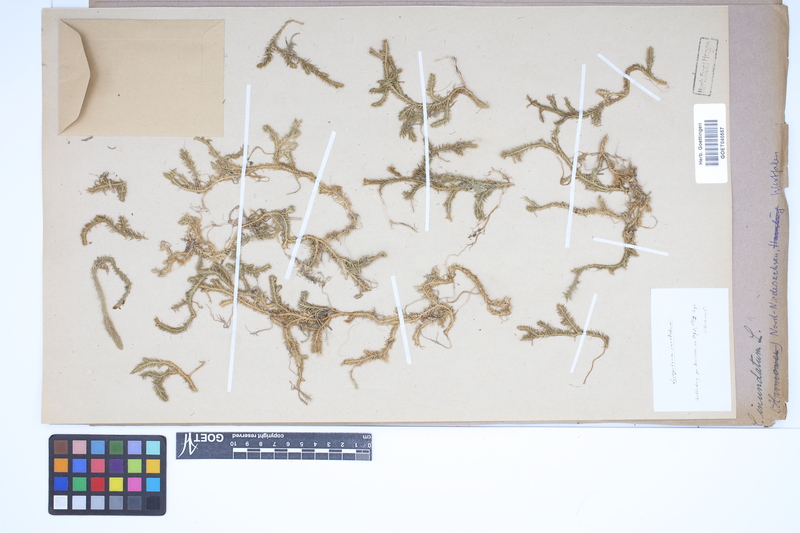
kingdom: Plantae
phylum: Tracheophyta
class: Lycopodiopsida
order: Lycopodiales
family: Lycopodiaceae
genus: Lycopodiella
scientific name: Lycopodiella inundata
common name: Marsh clubmoss
